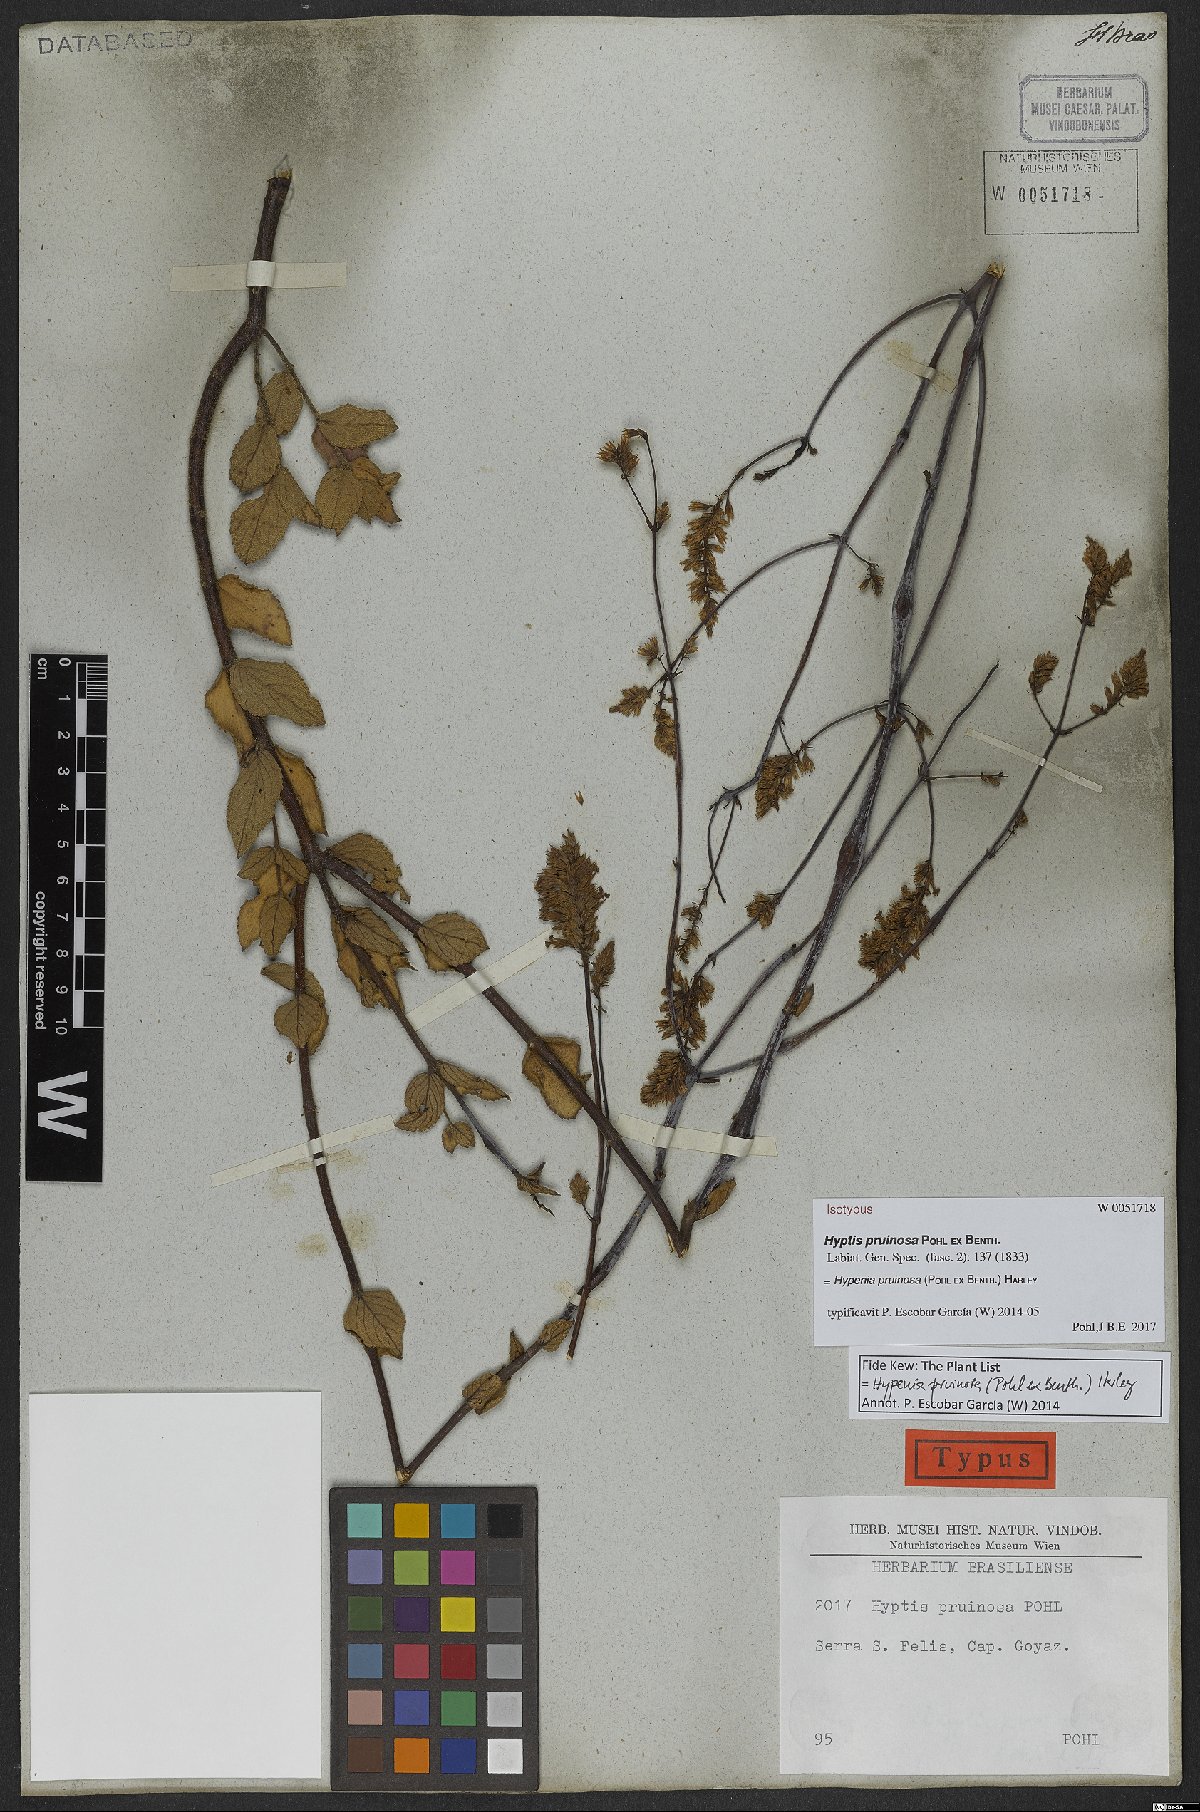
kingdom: Plantae
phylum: Tracheophyta
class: Magnoliopsida
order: Lamiales
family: Lamiaceae
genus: Hypenia
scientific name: Hypenia pruinosa
